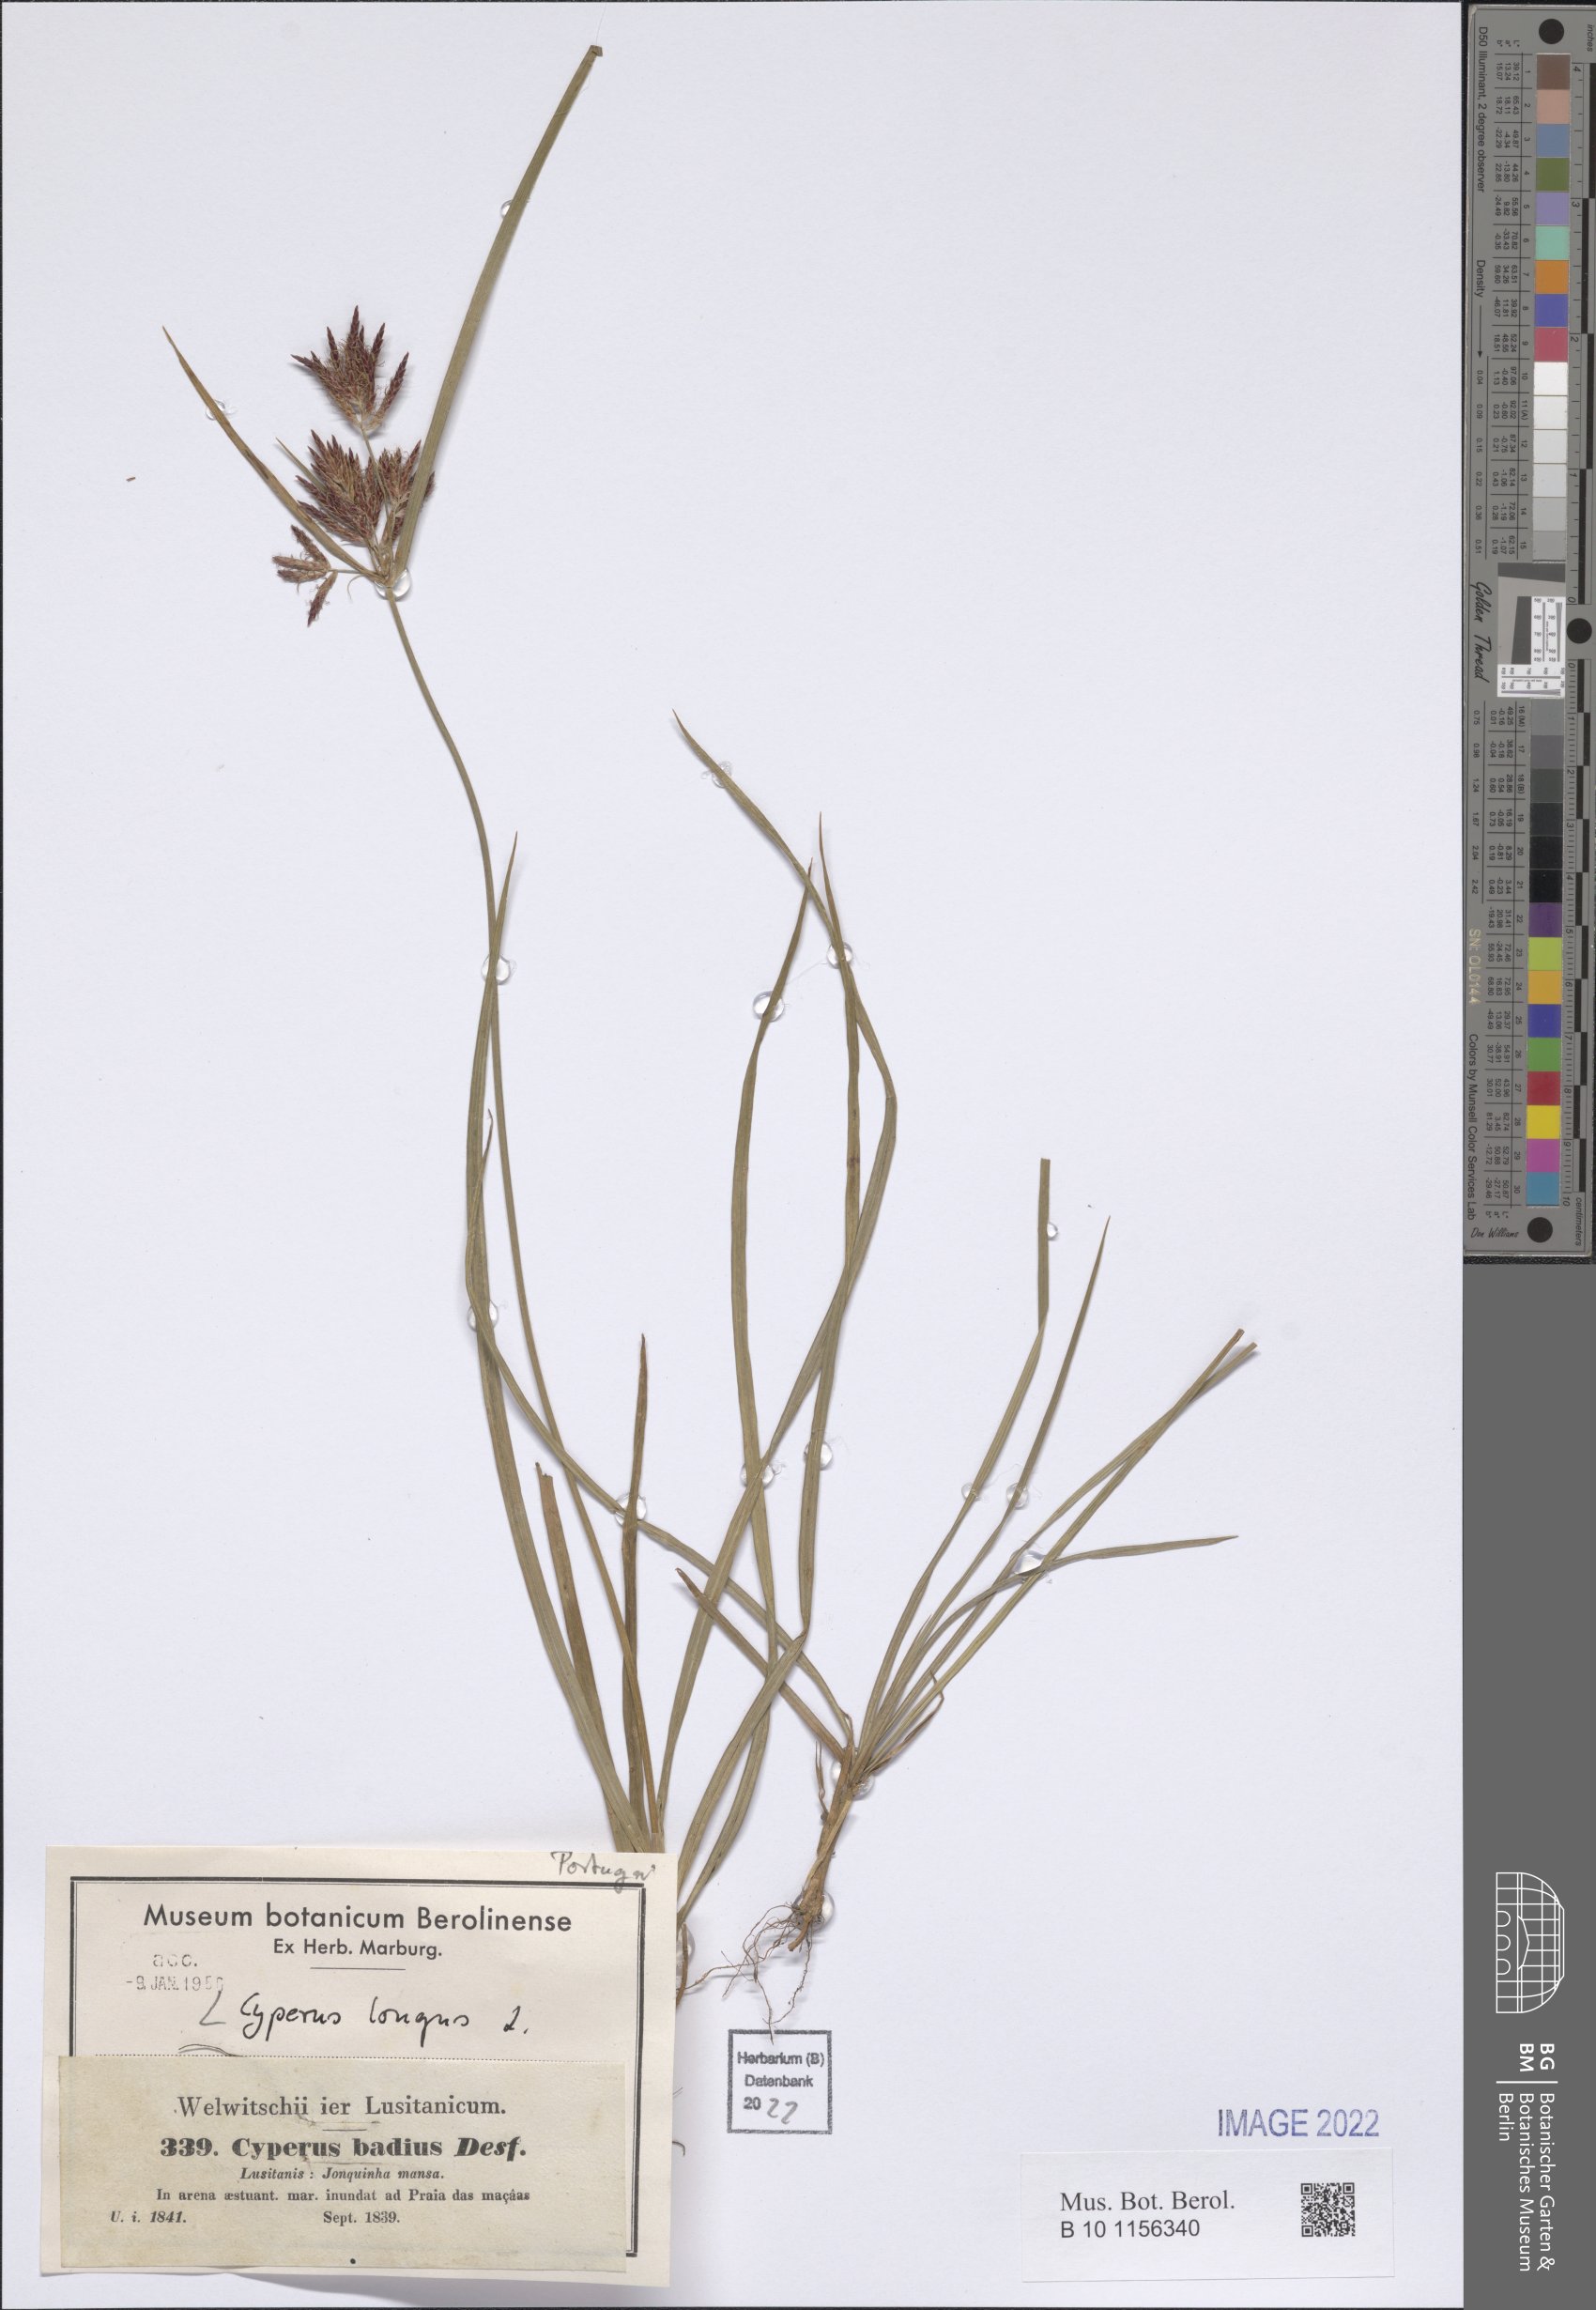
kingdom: Plantae
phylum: Tracheophyta
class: Liliopsida
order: Poales
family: Cyperaceae
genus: Cyperus
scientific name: Cyperus longus
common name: Galingale
